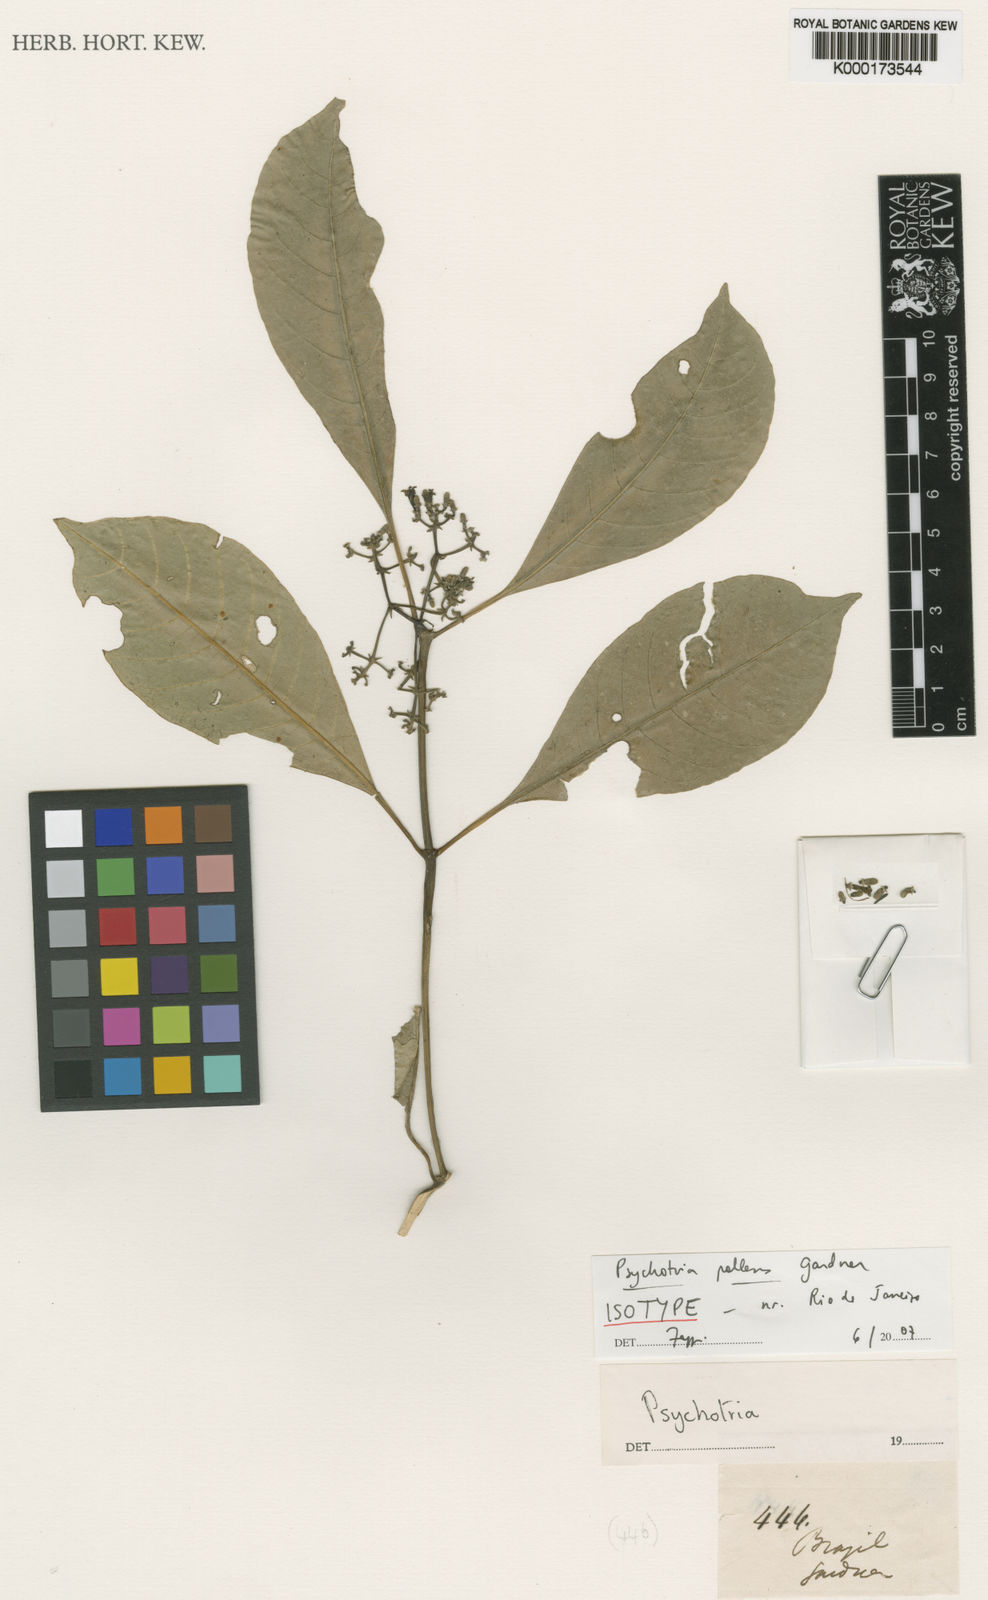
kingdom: Plantae
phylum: Tracheophyta
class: Magnoliopsida
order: Gentianales
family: Rubiaceae
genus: Psychotria
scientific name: Psychotria pallens
